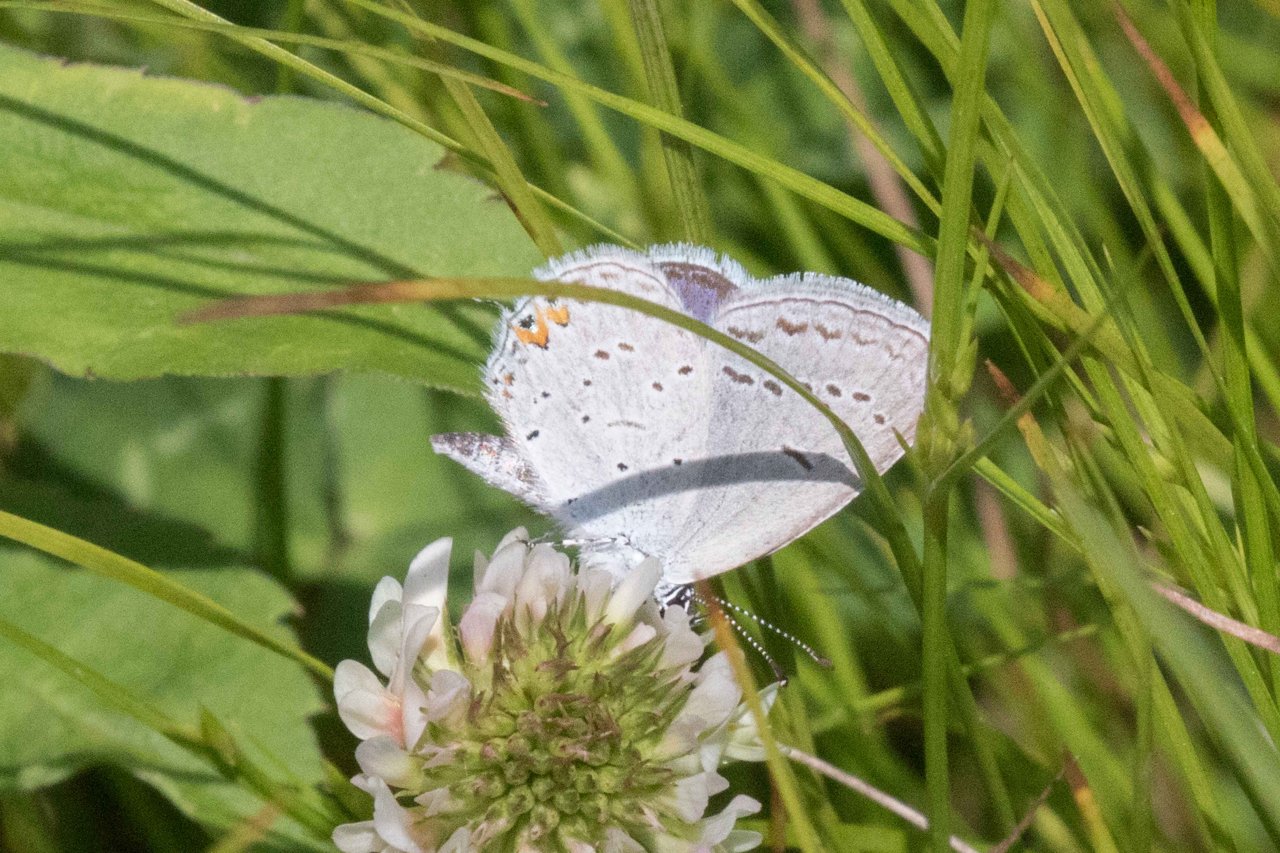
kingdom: Animalia
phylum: Arthropoda
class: Insecta
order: Lepidoptera
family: Lycaenidae
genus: Elkalyce
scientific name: Elkalyce comyntas
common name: Eastern Tailed-Blue
